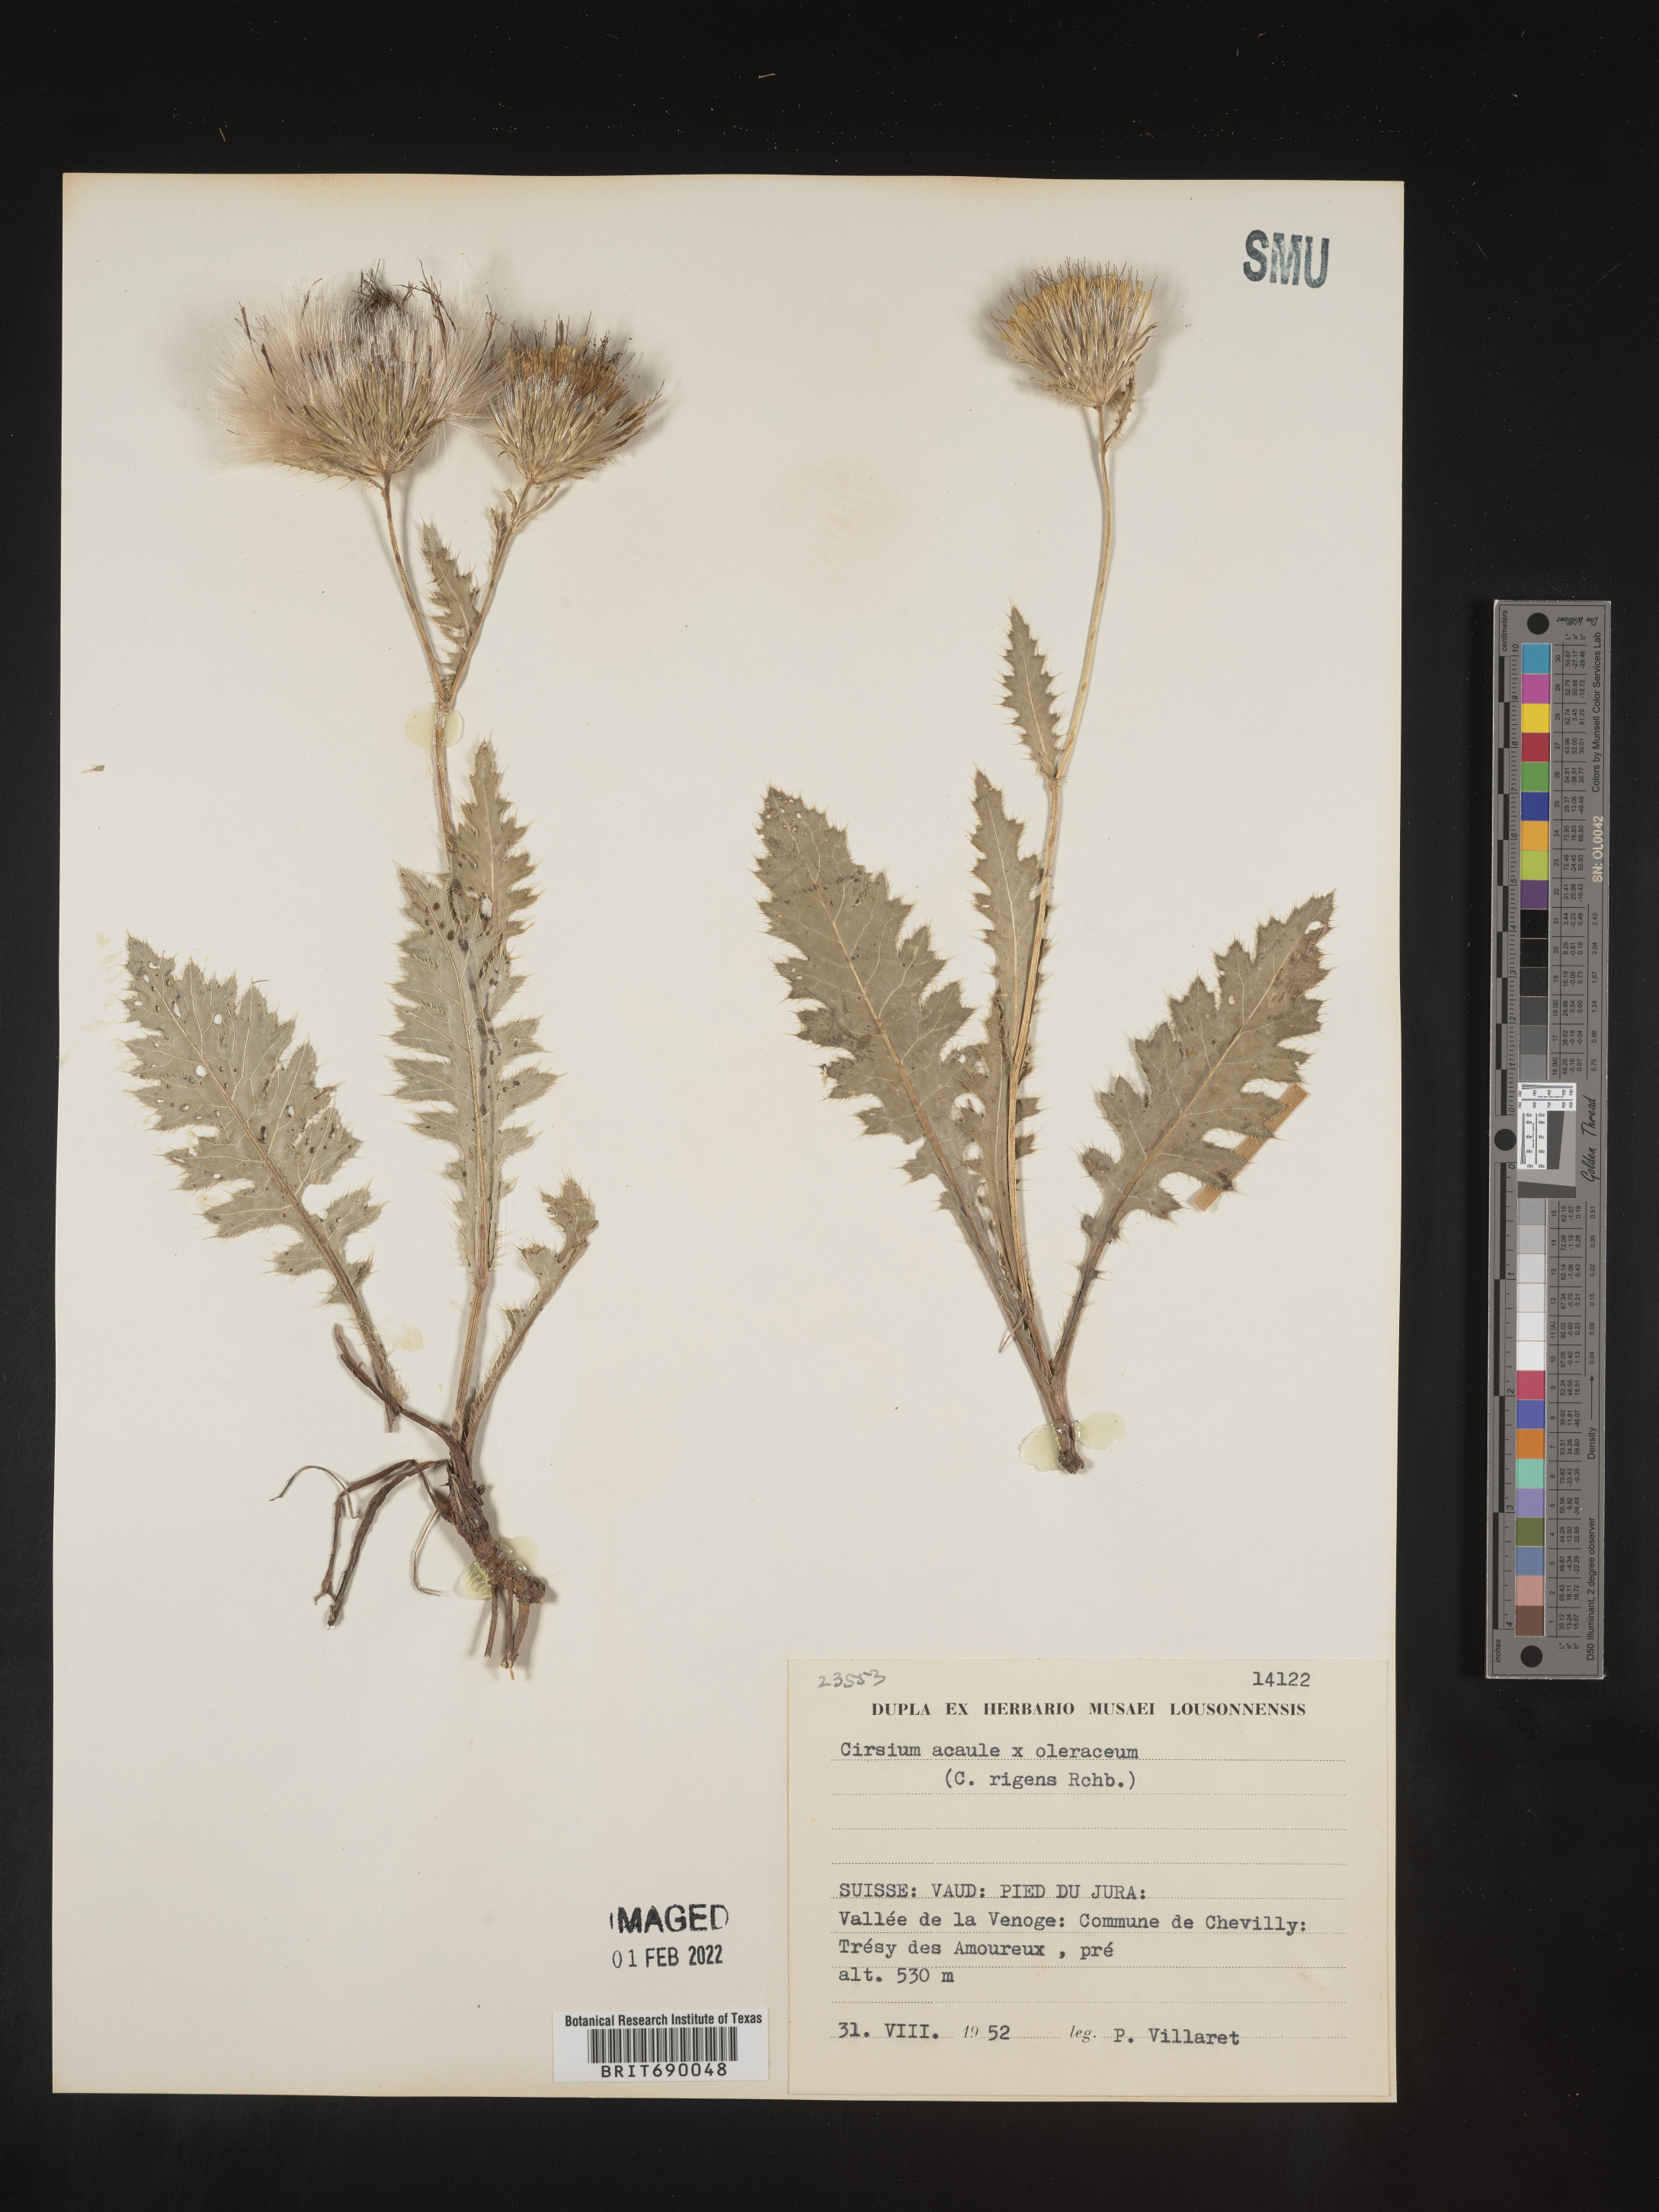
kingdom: Plantae
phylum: Tracheophyta
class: Magnoliopsida
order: Asterales
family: Asteraceae
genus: Cirsium
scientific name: Cirsium
